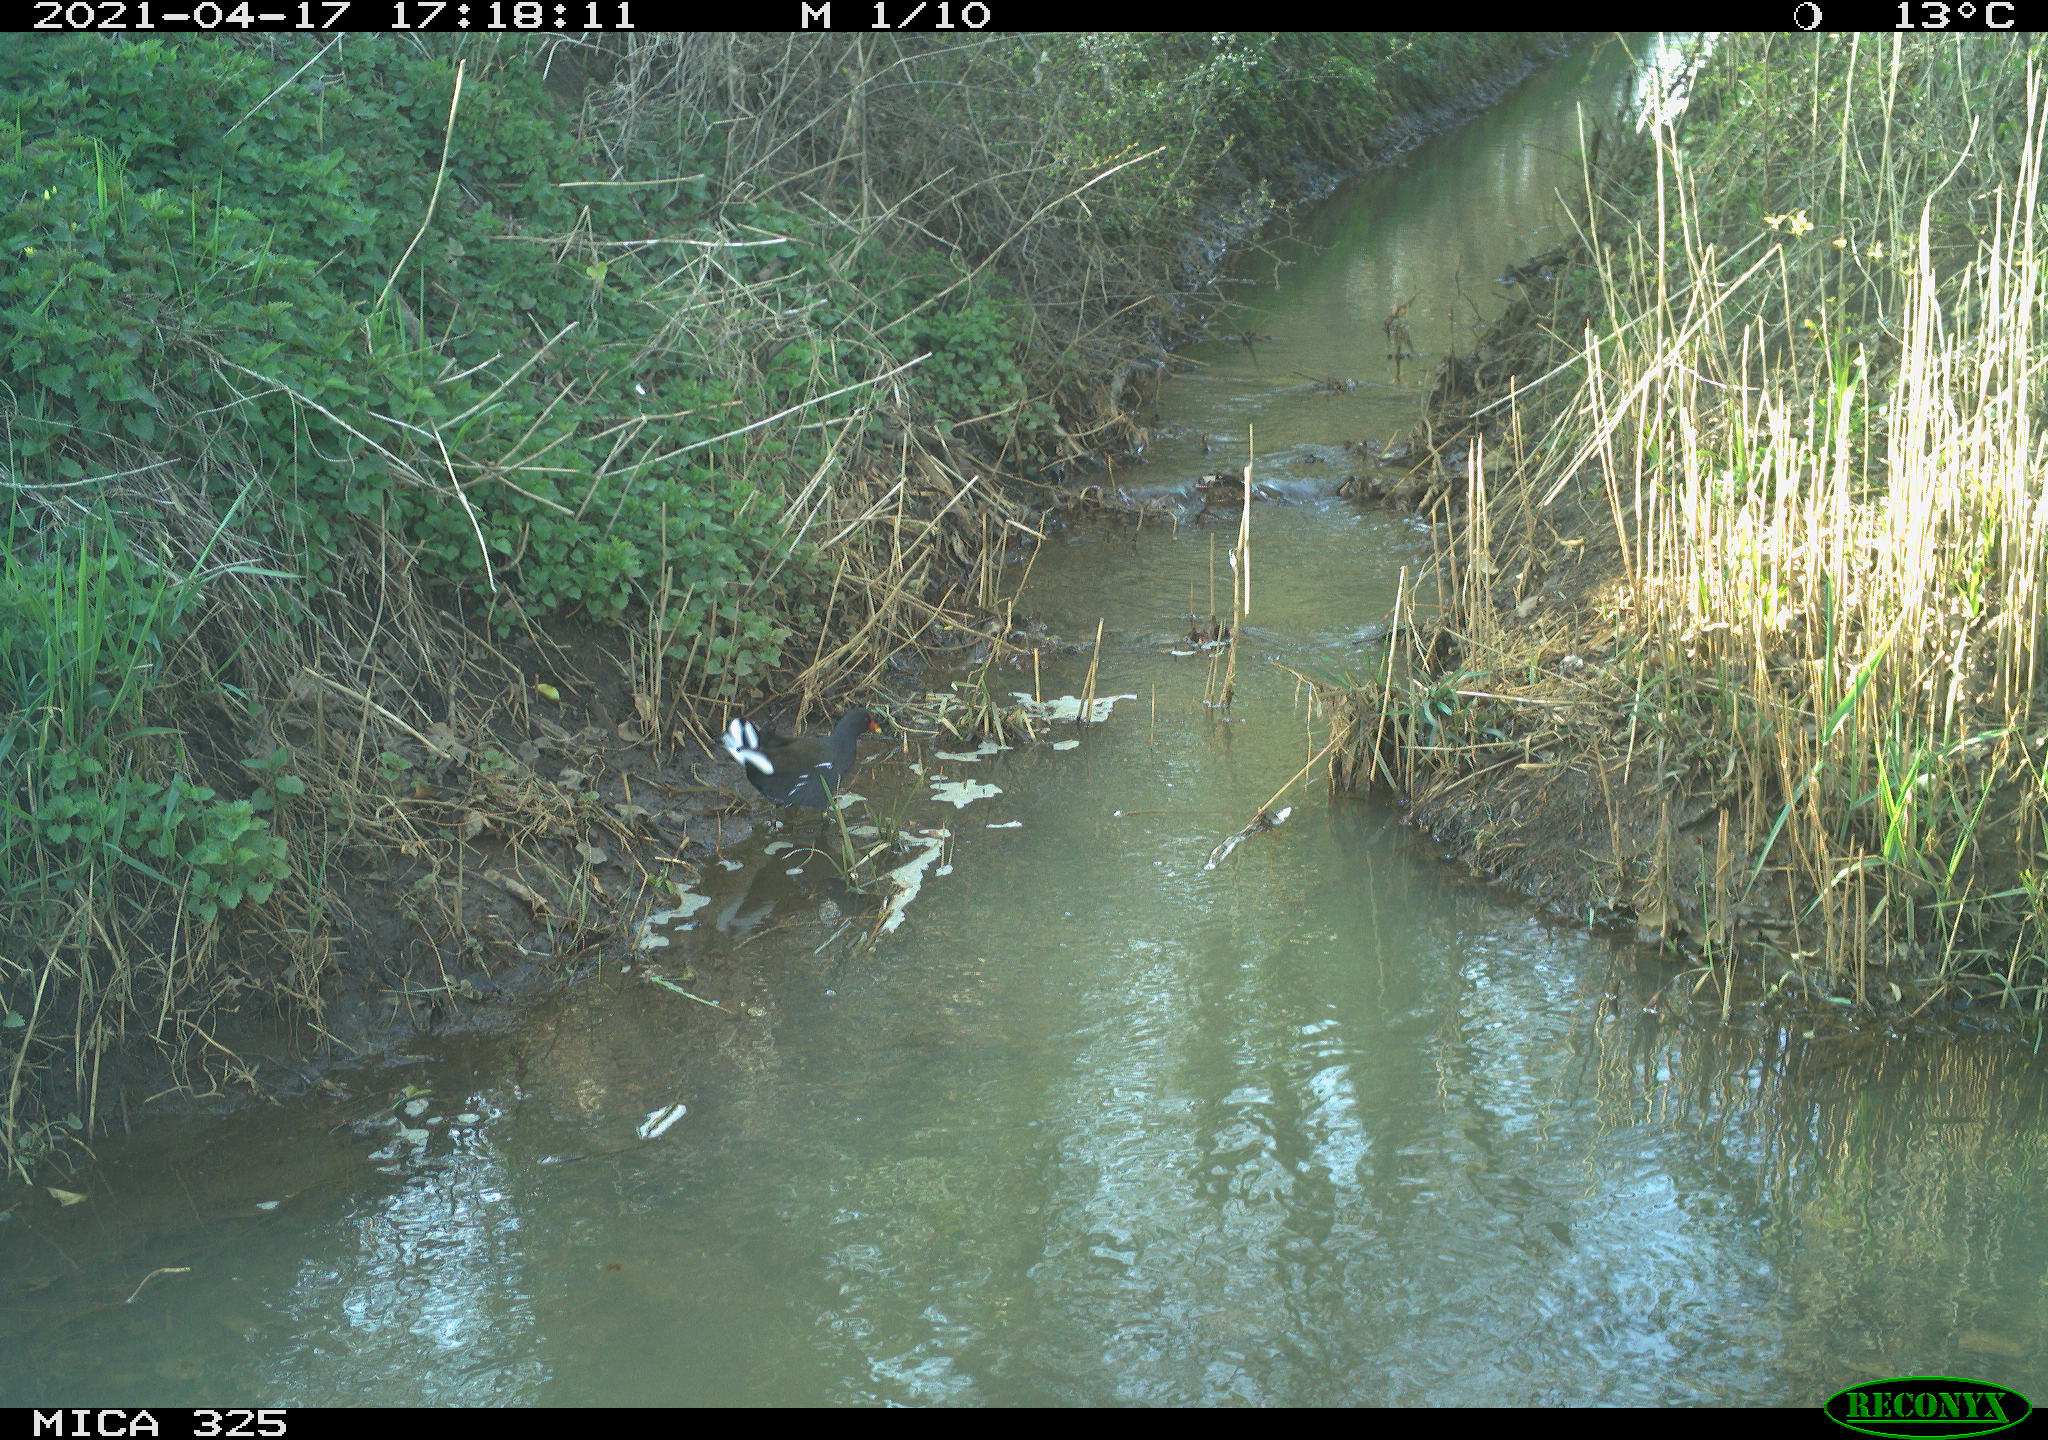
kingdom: Animalia
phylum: Chordata
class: Aves
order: Gruiformes
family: Rallidae
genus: Gallinula
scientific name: Gallinula chloropus
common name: Common moorhen
